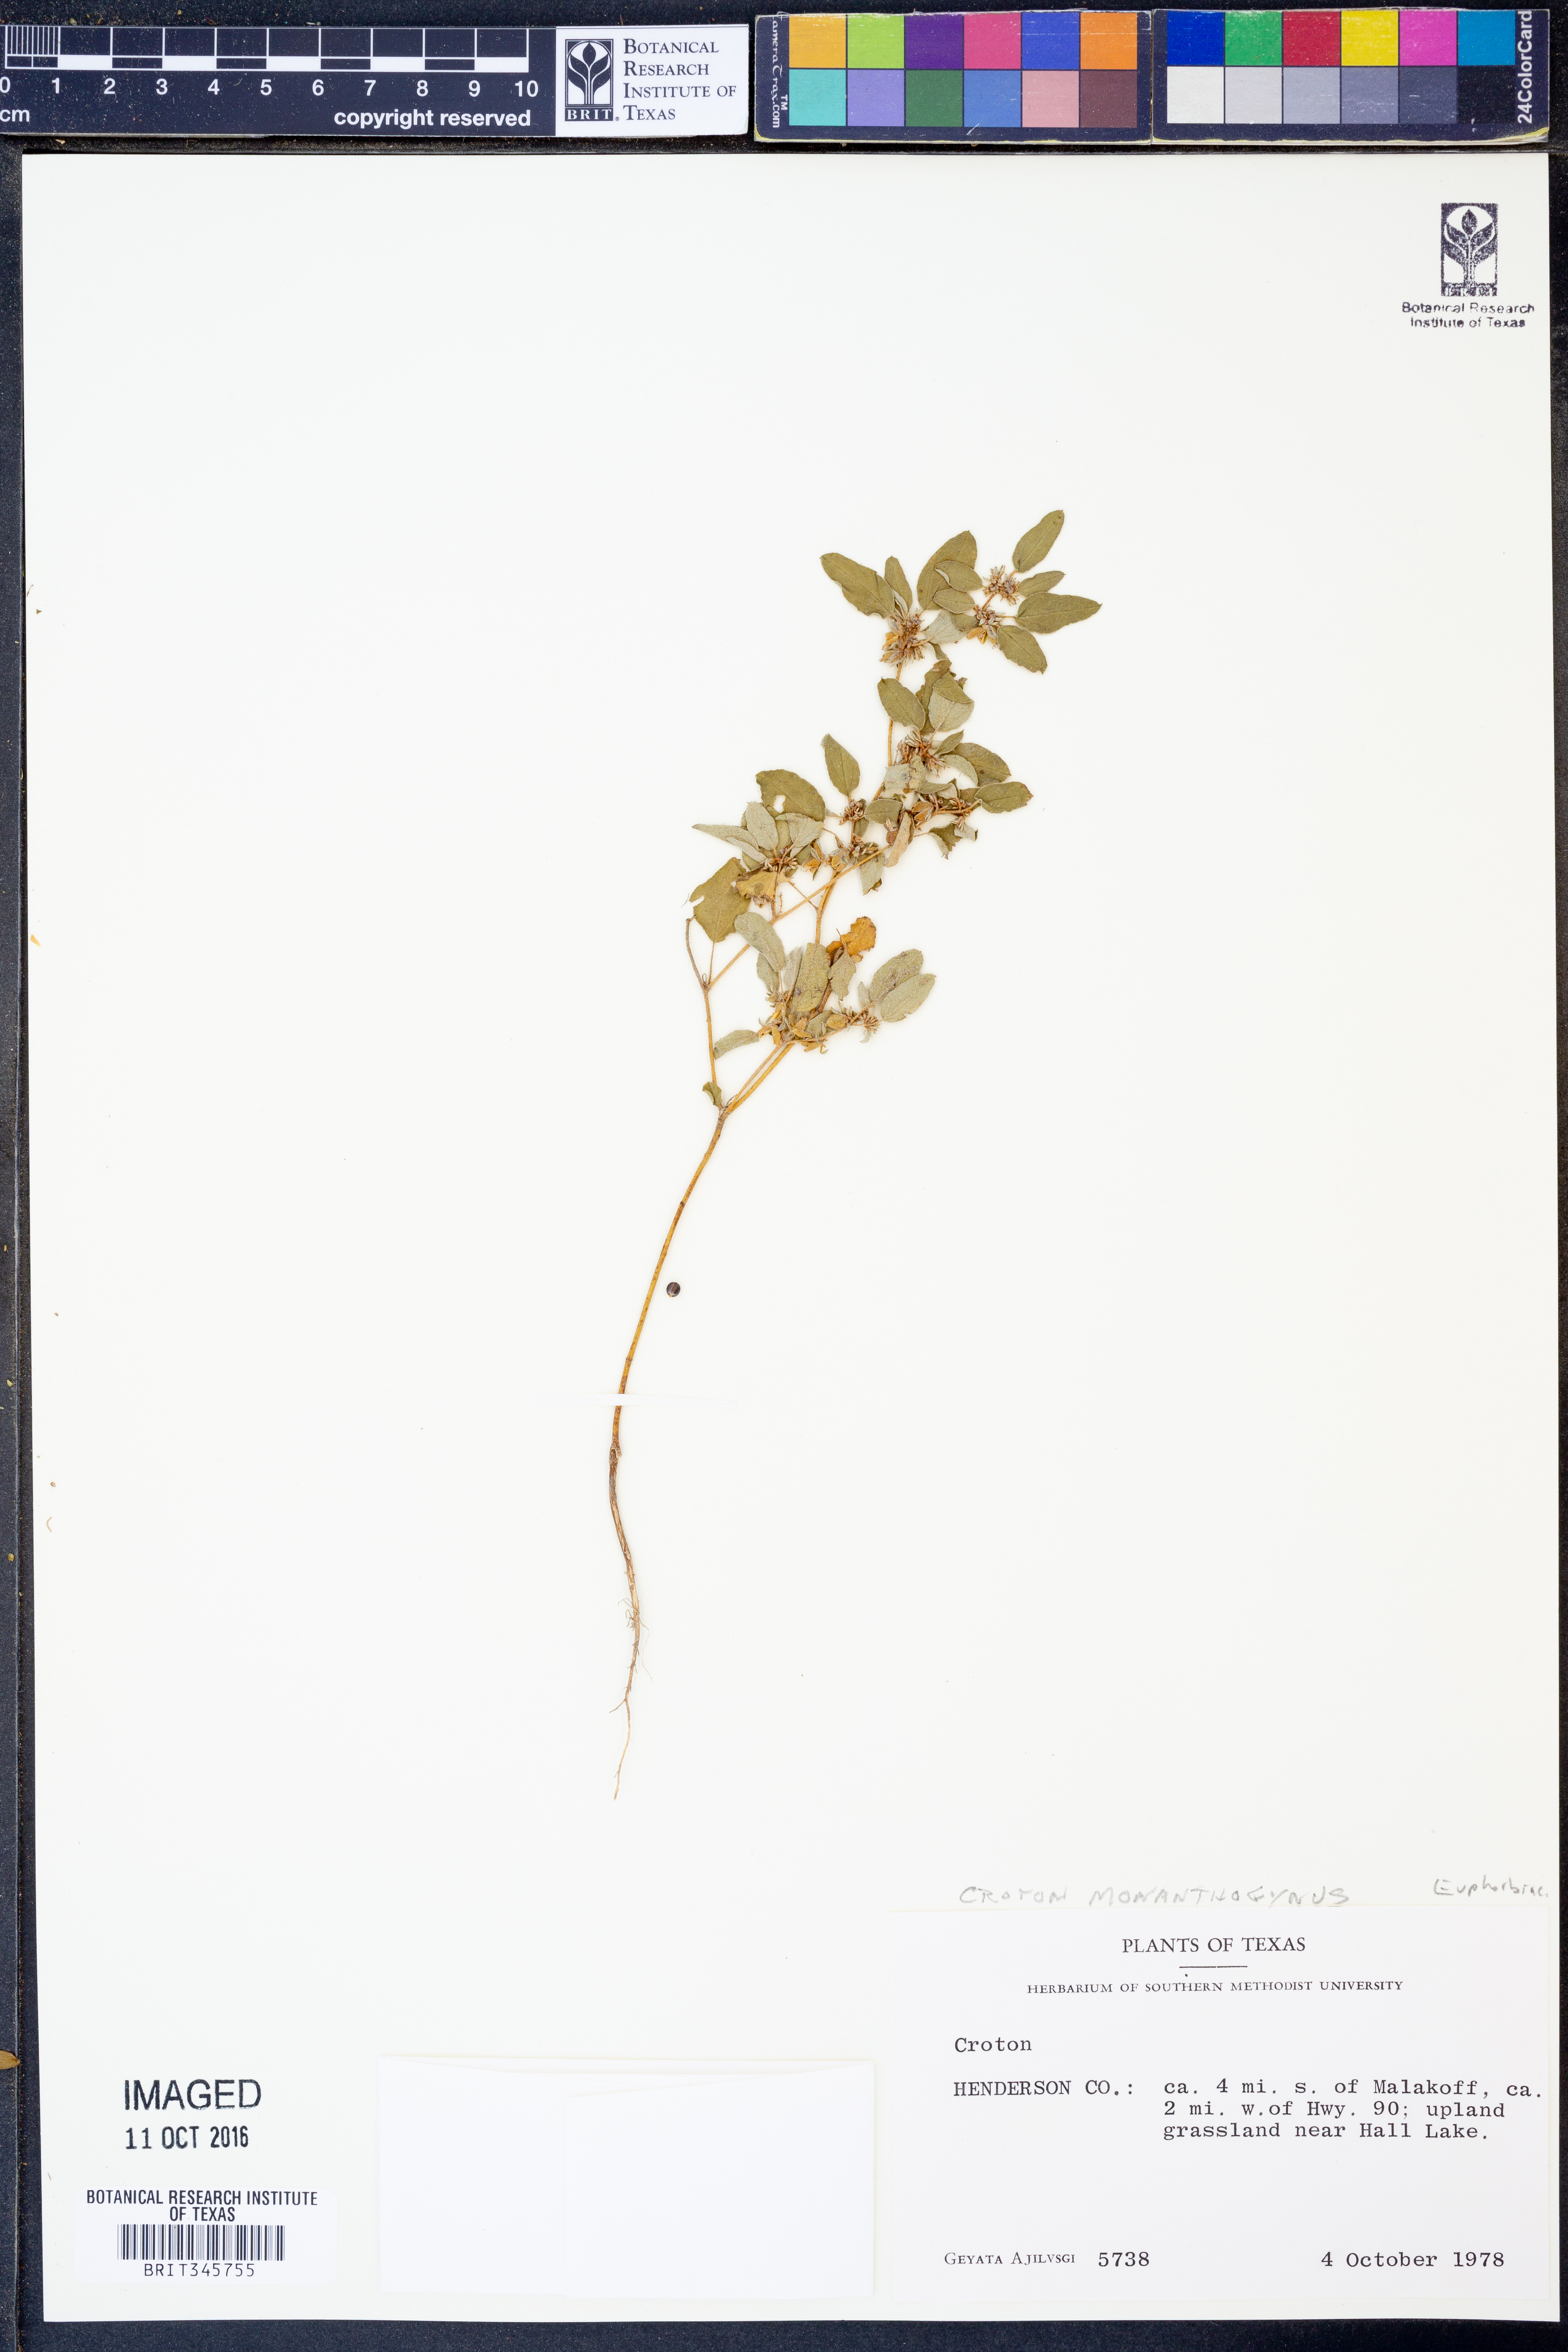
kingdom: Plantae
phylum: Tracheophyta
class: Magnoliopsida
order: Malpighiales
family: Euphorbiaceae
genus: Croton
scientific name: Croton monanthogynus
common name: One-seed croton
